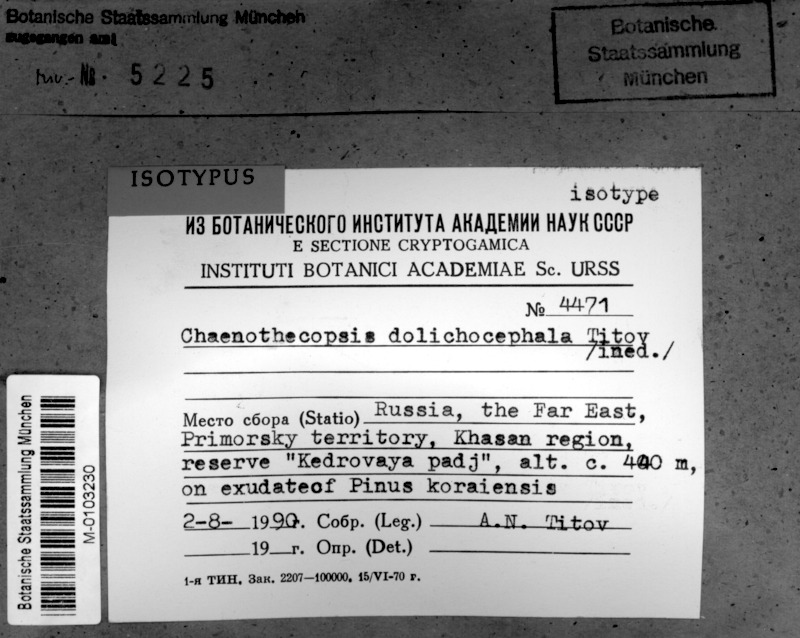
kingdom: Fungi
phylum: Ascomycota
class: Eurotiomycetes
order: Mycocaliciales
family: Mycocaliciaceae
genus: Chaenothecopsis
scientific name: Chaenothecopsis
